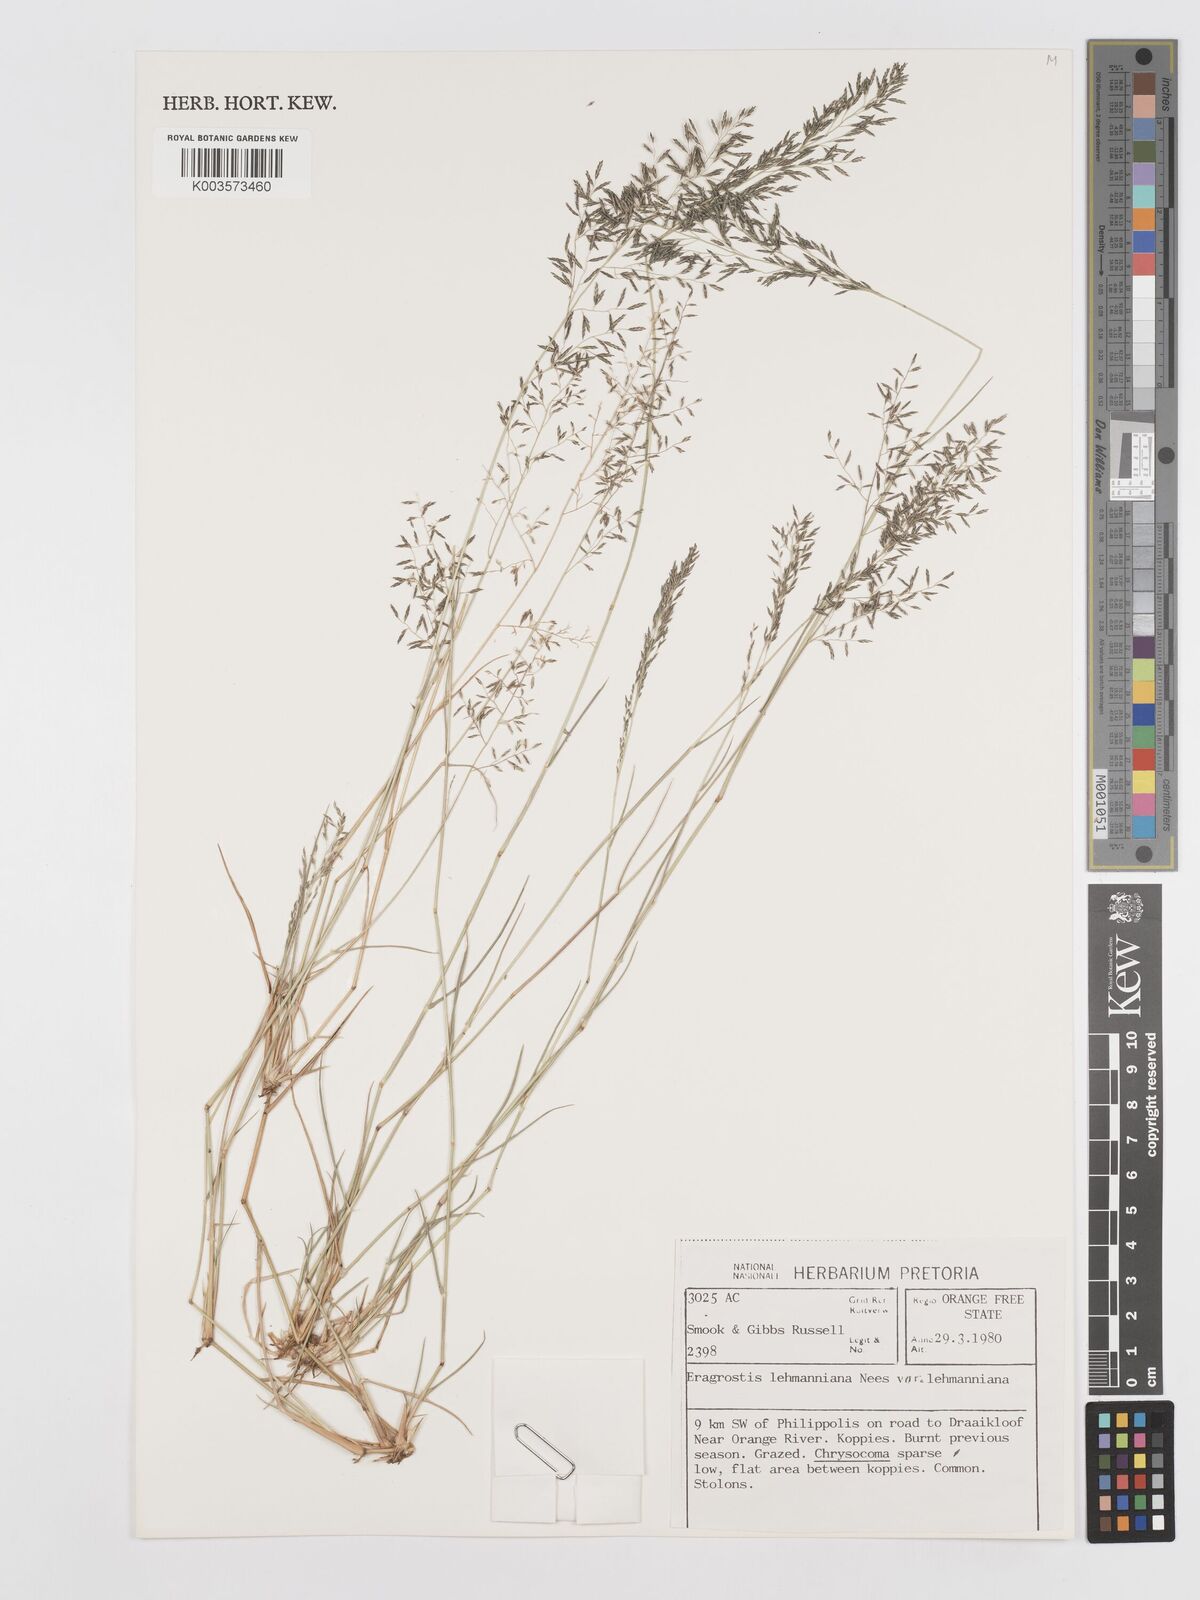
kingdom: Plantae
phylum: Tracheophyta
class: Liliopsida
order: Poales
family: Poaceae
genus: Eragrostis
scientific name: Eragrostis lehmanniana
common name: Lehmann lovegrass
